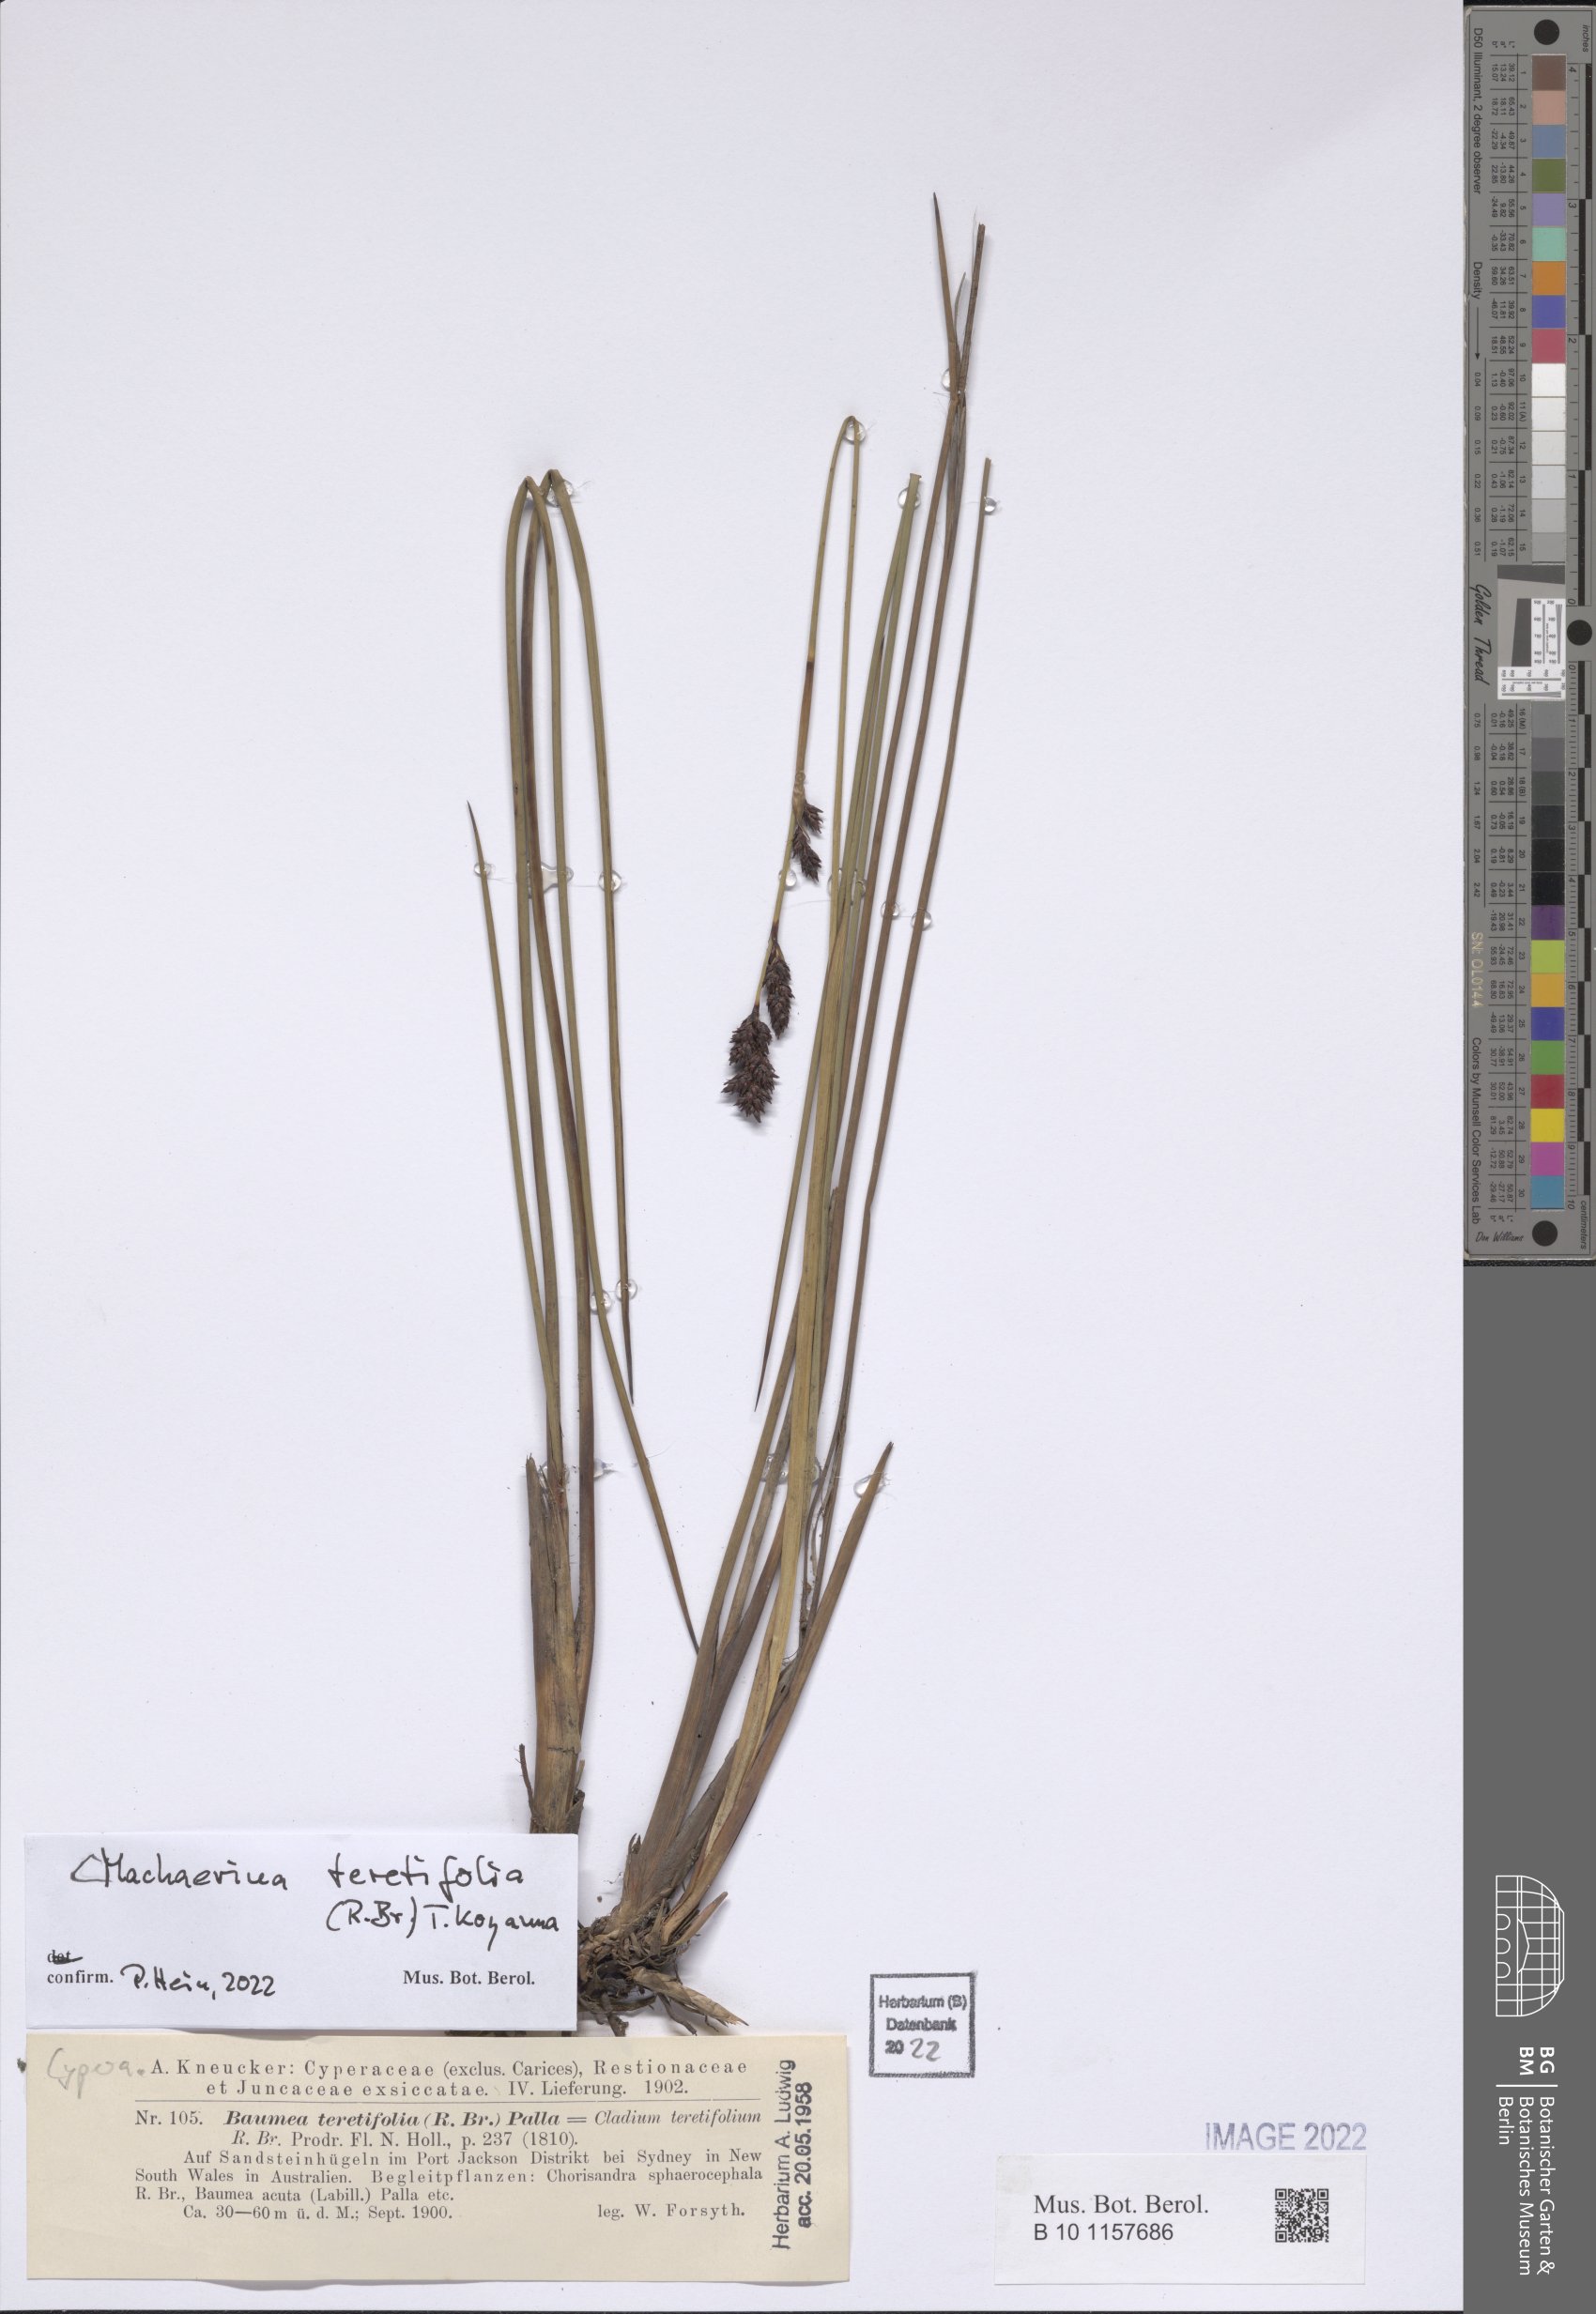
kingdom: Plantae
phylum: Tracheophyta
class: Liliopsida
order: Poales
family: Cyperaceae
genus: Machaerina
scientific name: Machaerina teretifolia
